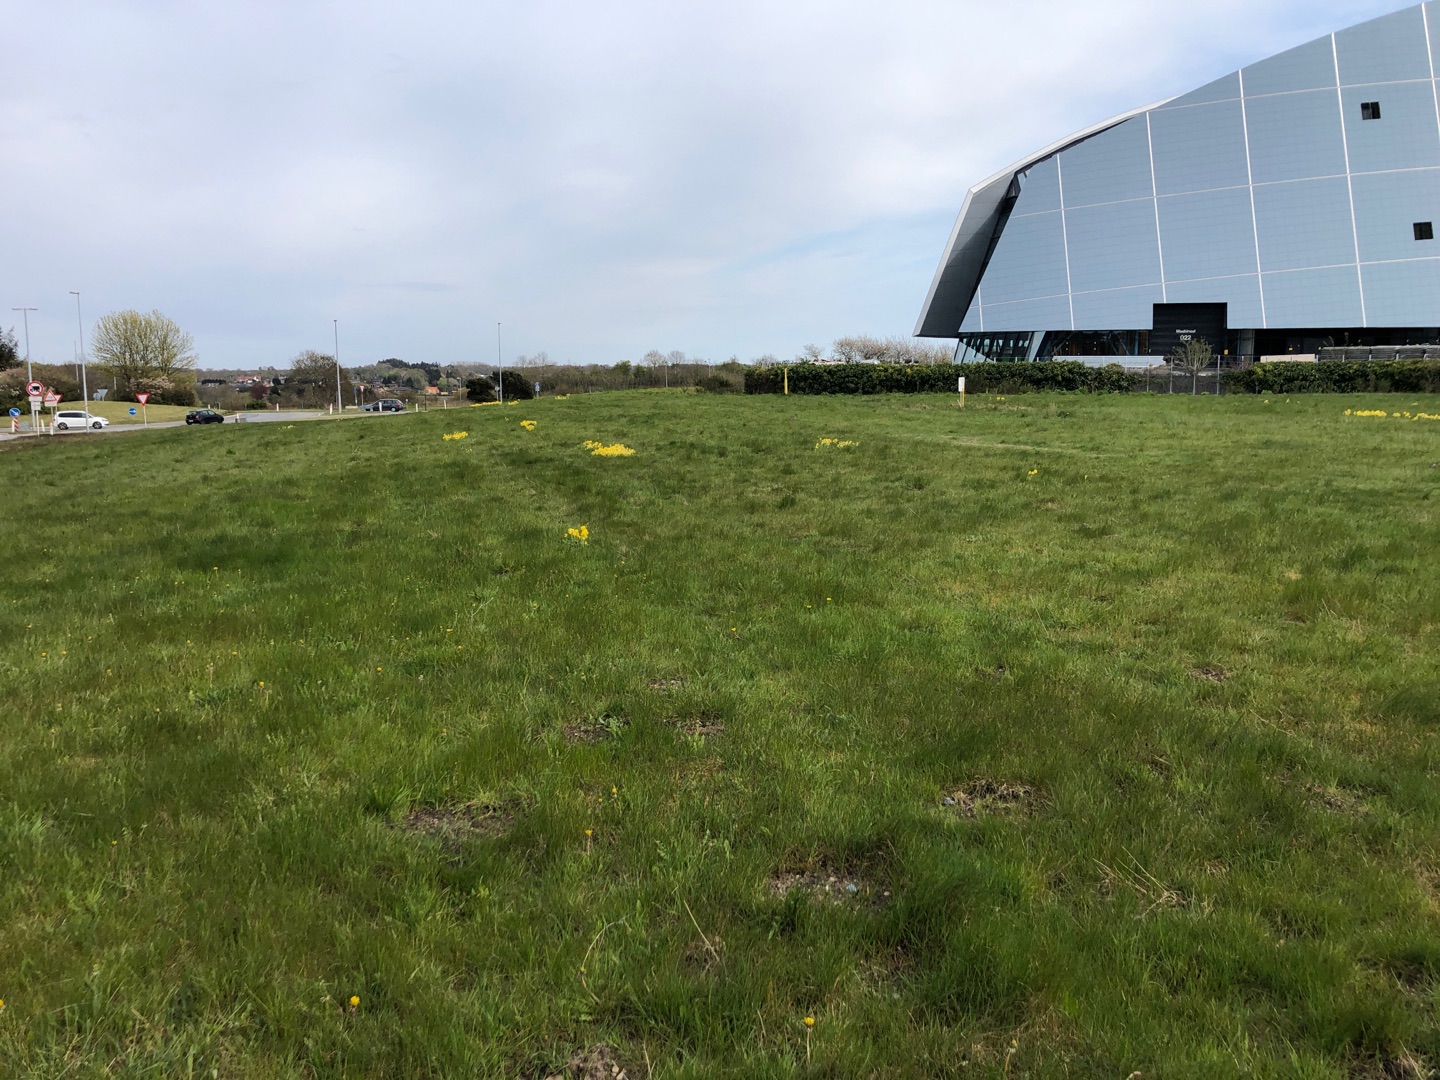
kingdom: Plantae
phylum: Tracheophyta
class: Magnoliopsida
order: Ericales
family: Primulaceae
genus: Primula
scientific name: Primula veris
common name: Hulkravet kodriver
